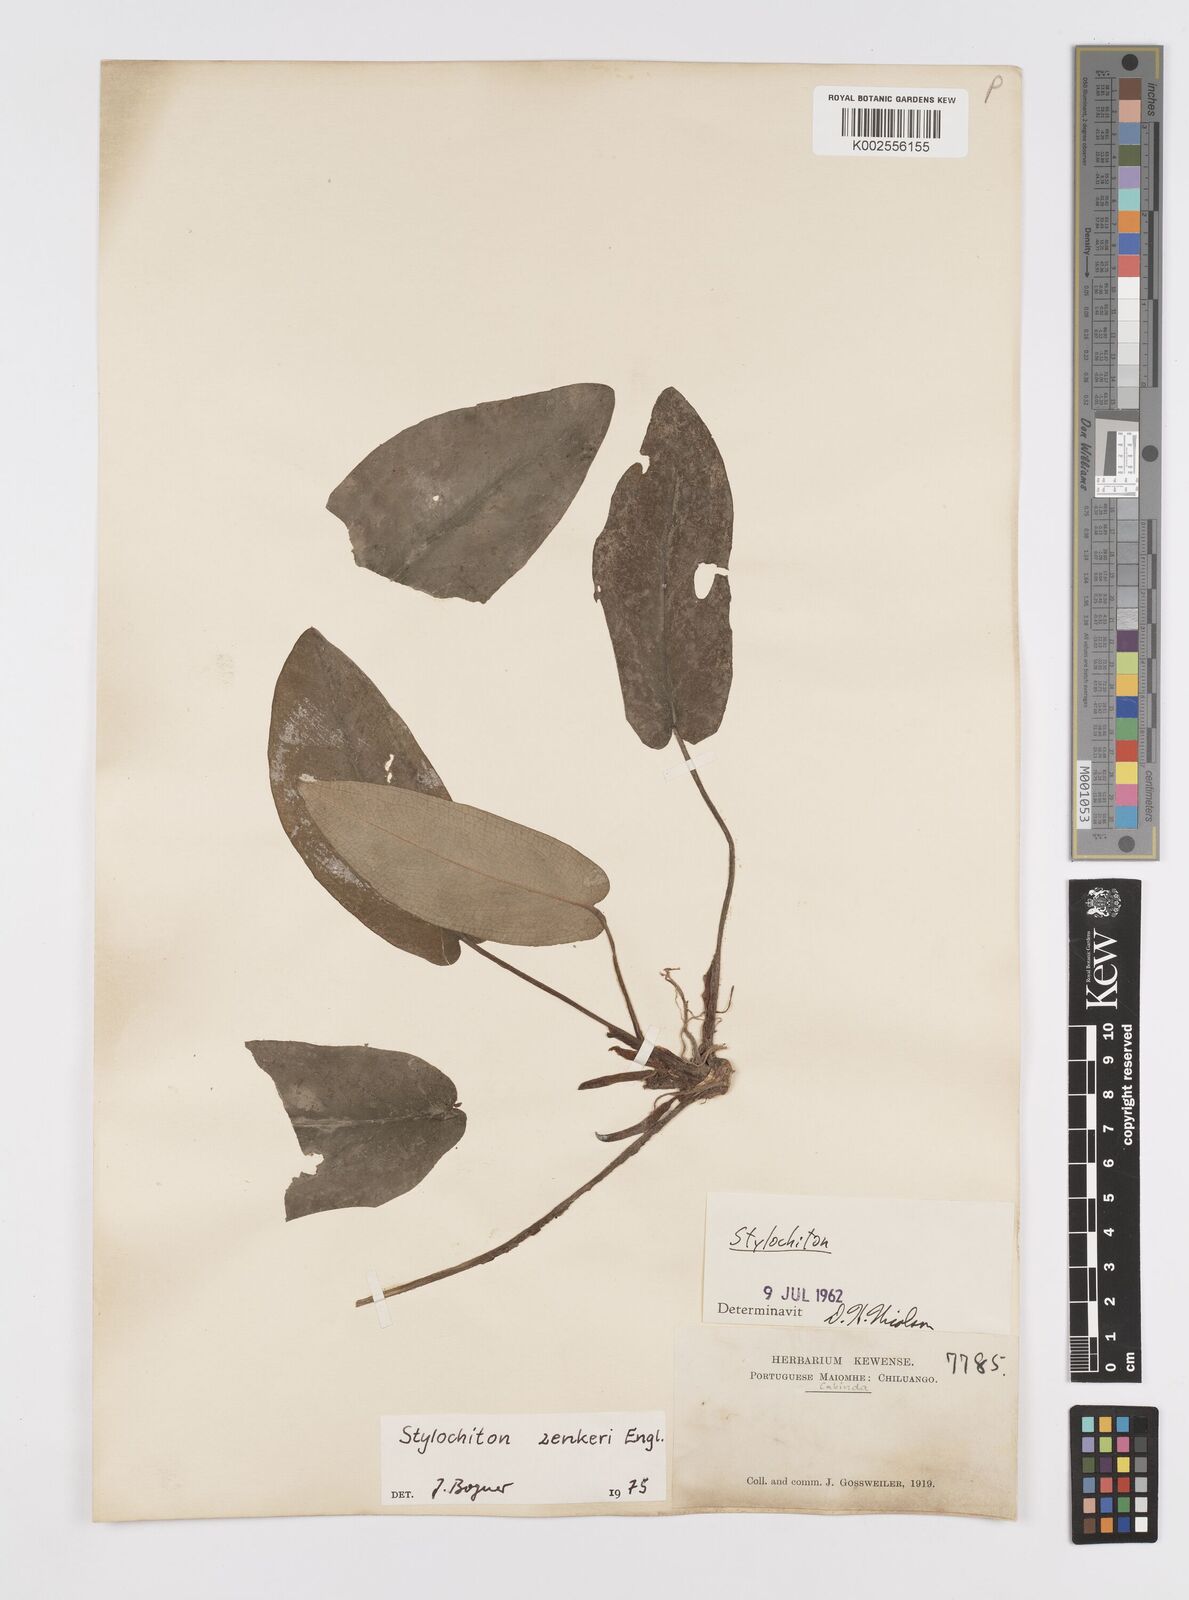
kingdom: Plantae
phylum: Tracheophyta
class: Liliopsida
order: Alismatales
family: Araceae
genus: Stylochaeton
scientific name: Stylochaeton zenkeri
